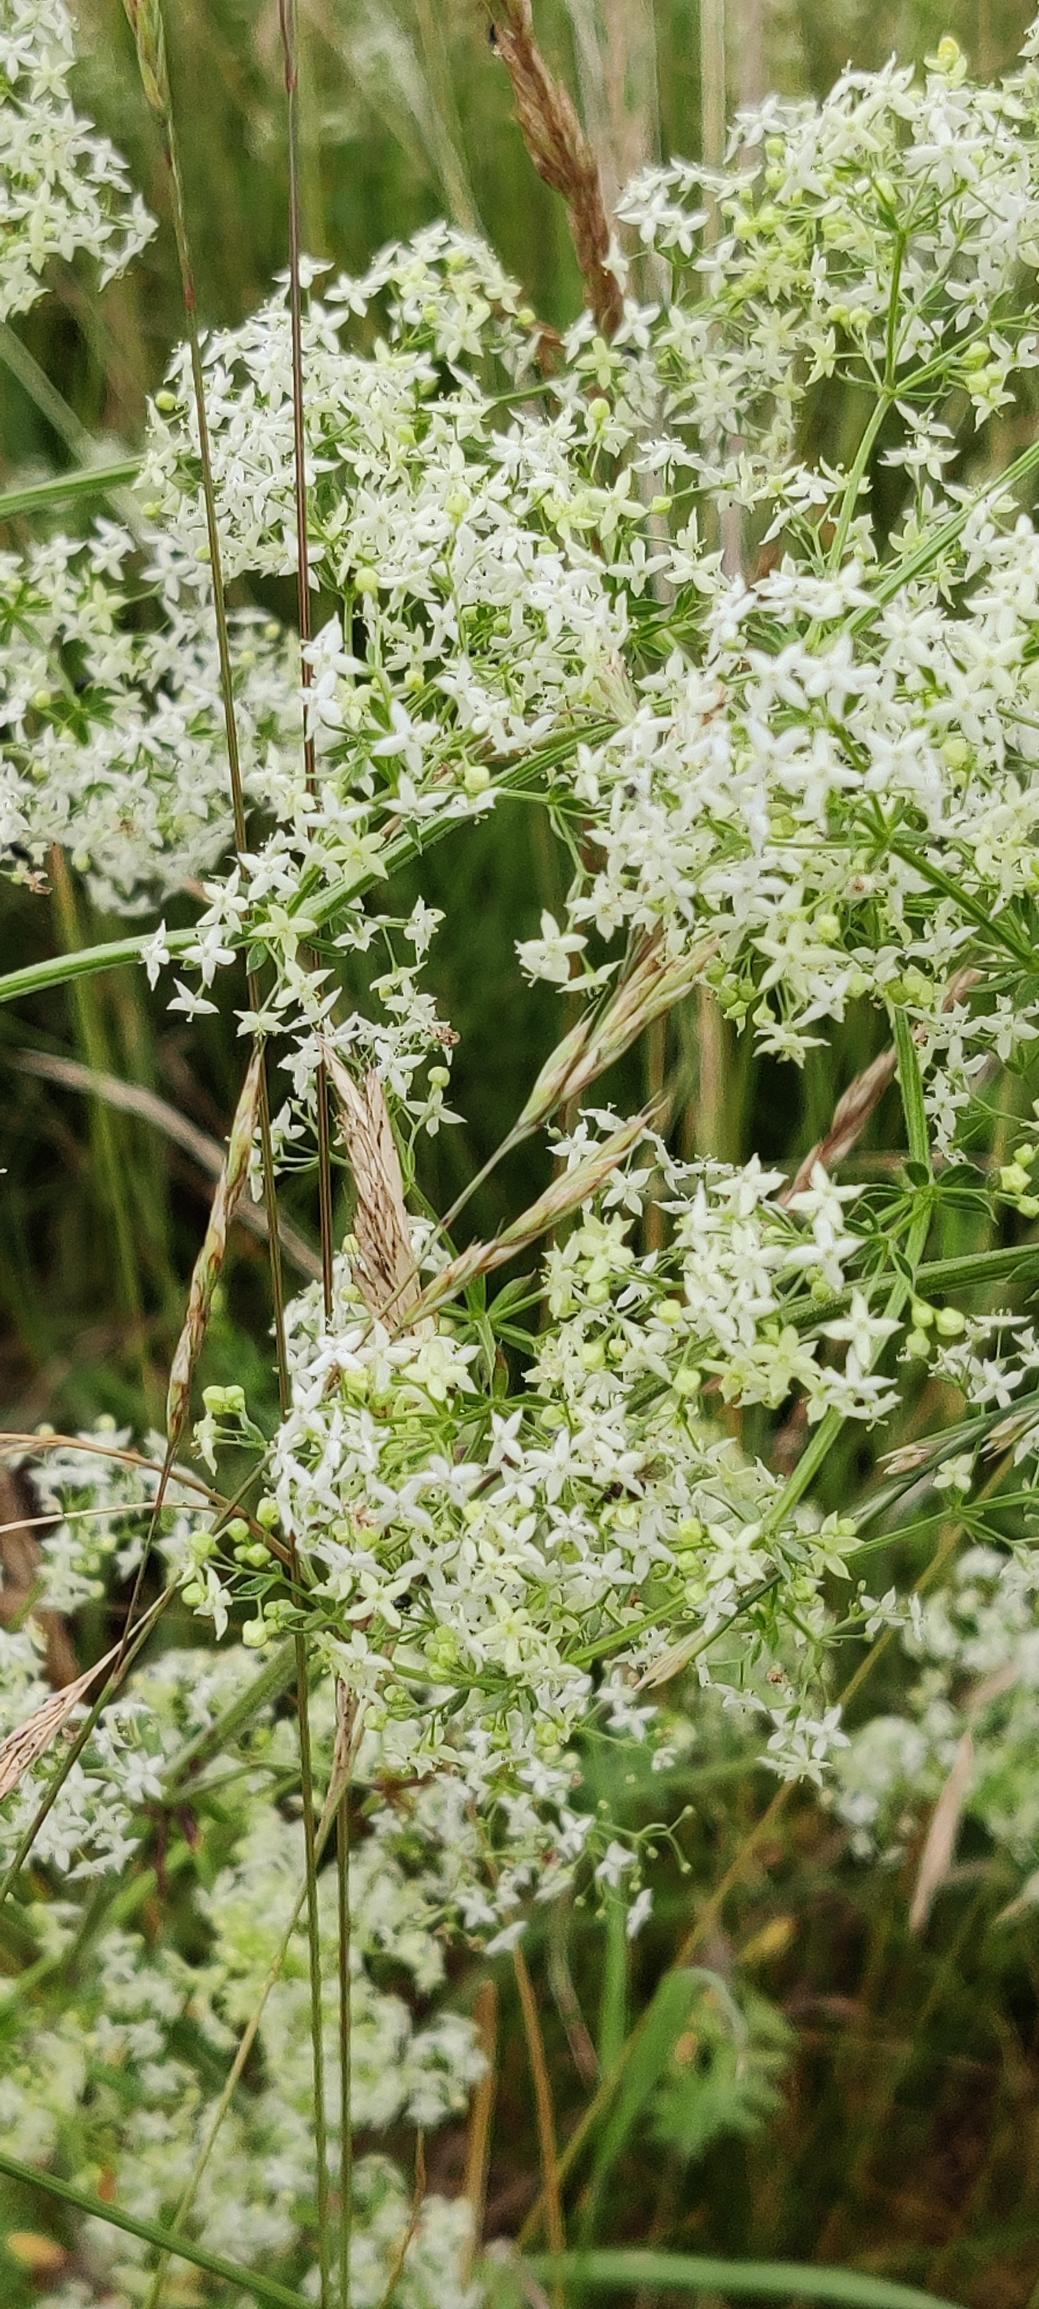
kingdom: Plantae
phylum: Tracheophyta
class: Magnoliopsida
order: Gentianales
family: Rubiaceae
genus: Galium
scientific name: Galium mollugo
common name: Hvid snerre
